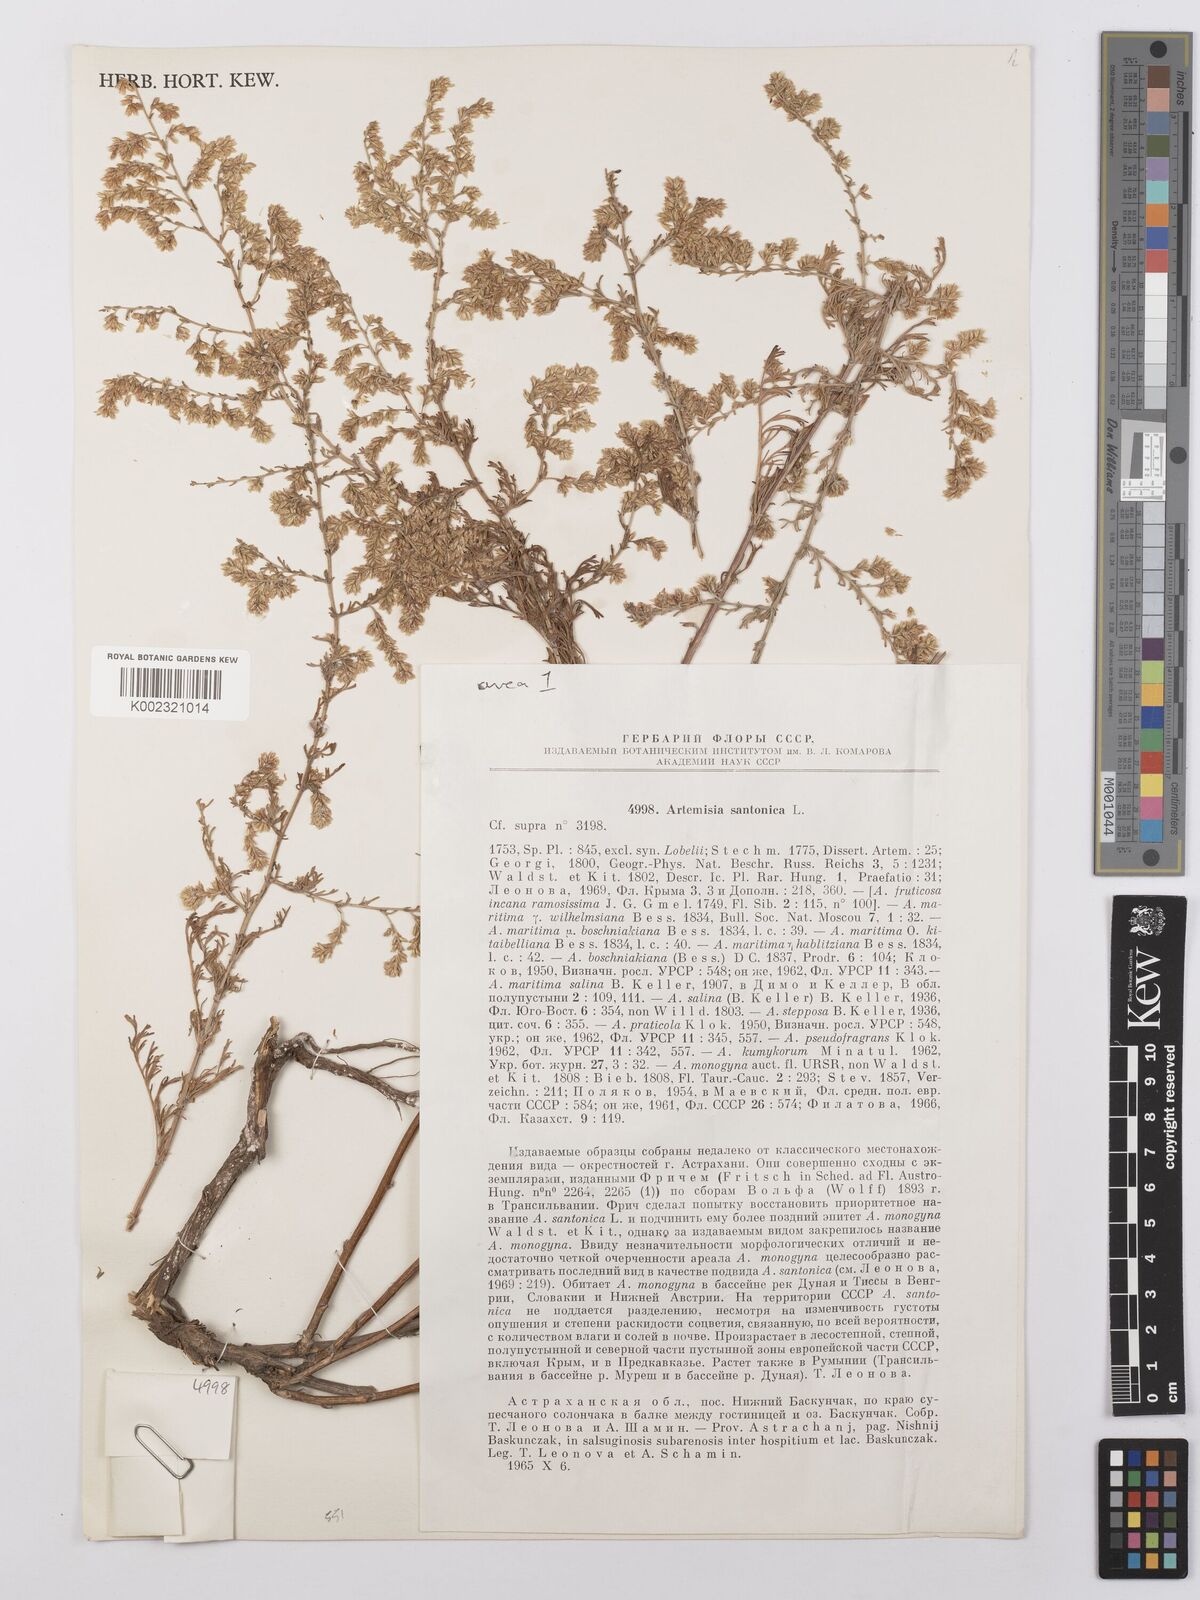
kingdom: Plantae
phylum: Tracheophyta
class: Magnoliopsida
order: Asterales
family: Asteraceae
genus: Artemisia
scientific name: Artemisia santonicum
